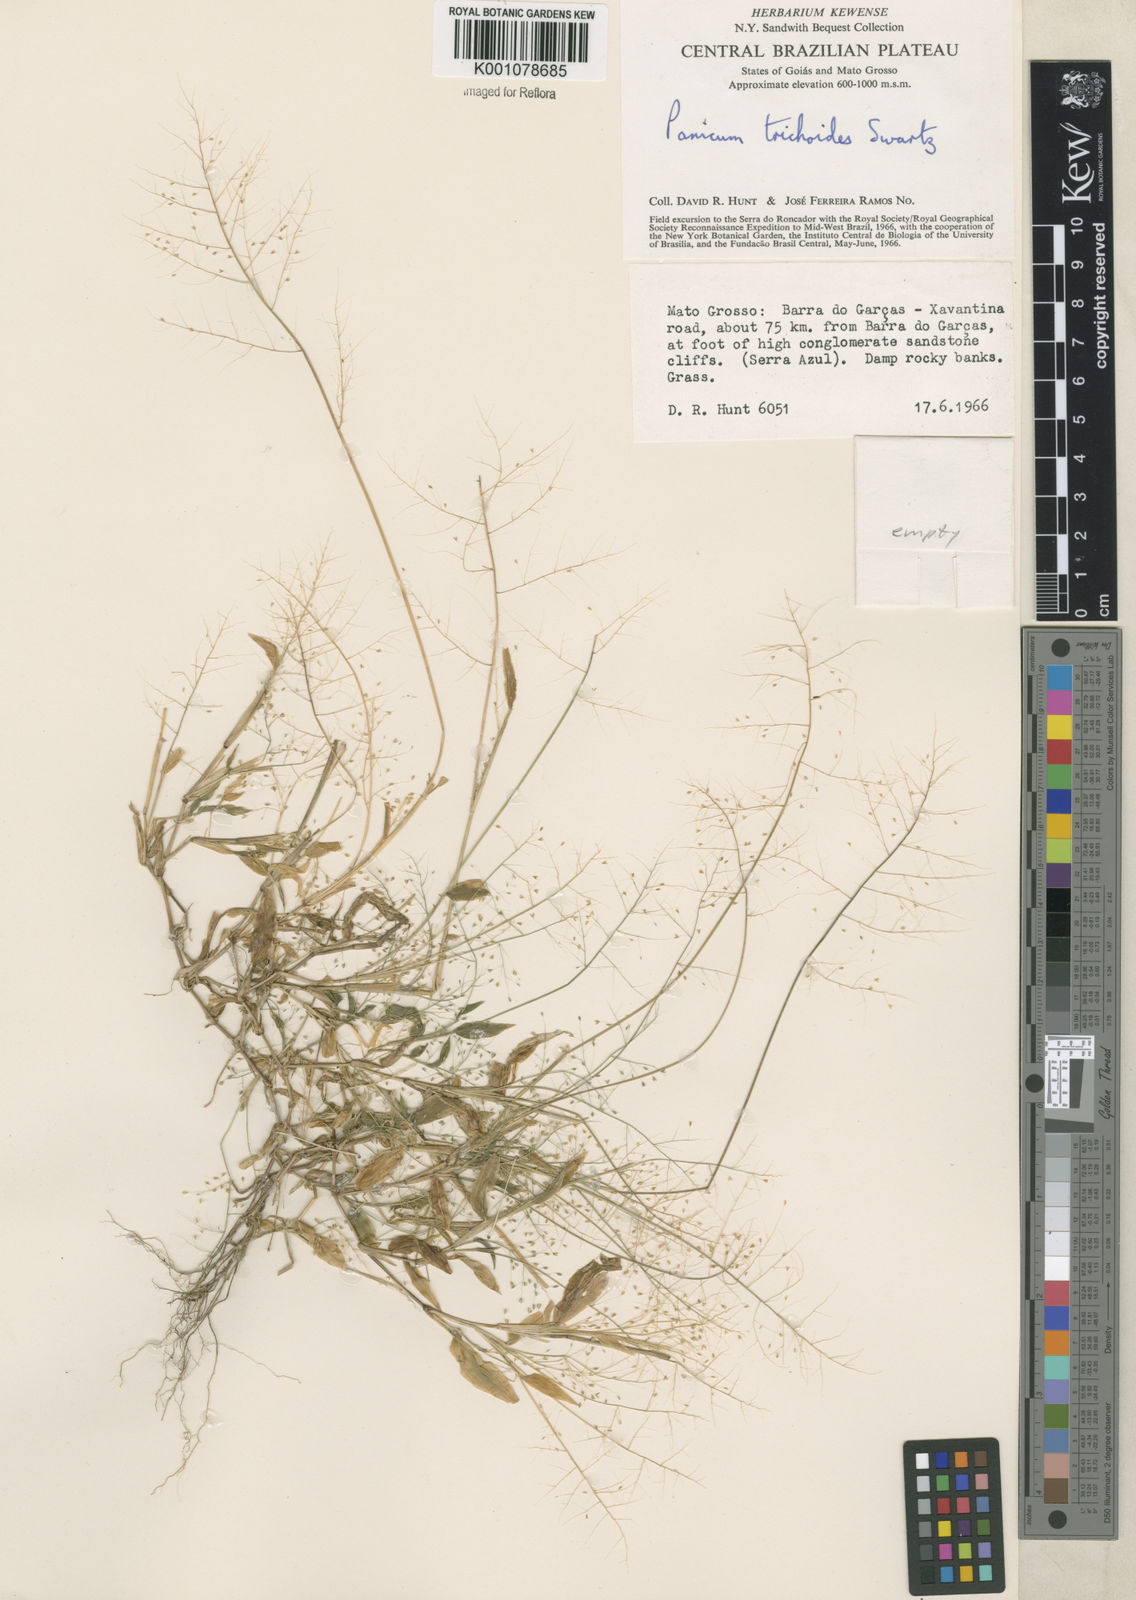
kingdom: Plantae
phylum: Tracheophyta
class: Liliopsida
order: Poales
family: Poaceae
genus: Panicum
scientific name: Panicum trichoides
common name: Tickle grass
